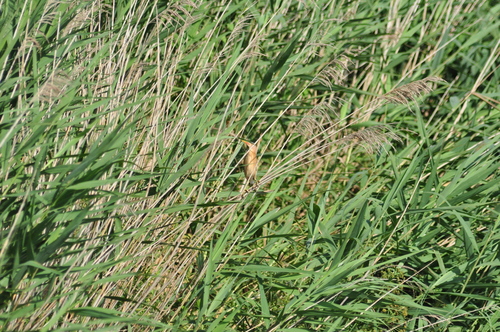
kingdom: Animalia
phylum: Chordata
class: Aves
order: Pelecaniformes
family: Ardeidae
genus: Ixobrychus
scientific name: Ixobrychus minutus
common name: Little bittern
